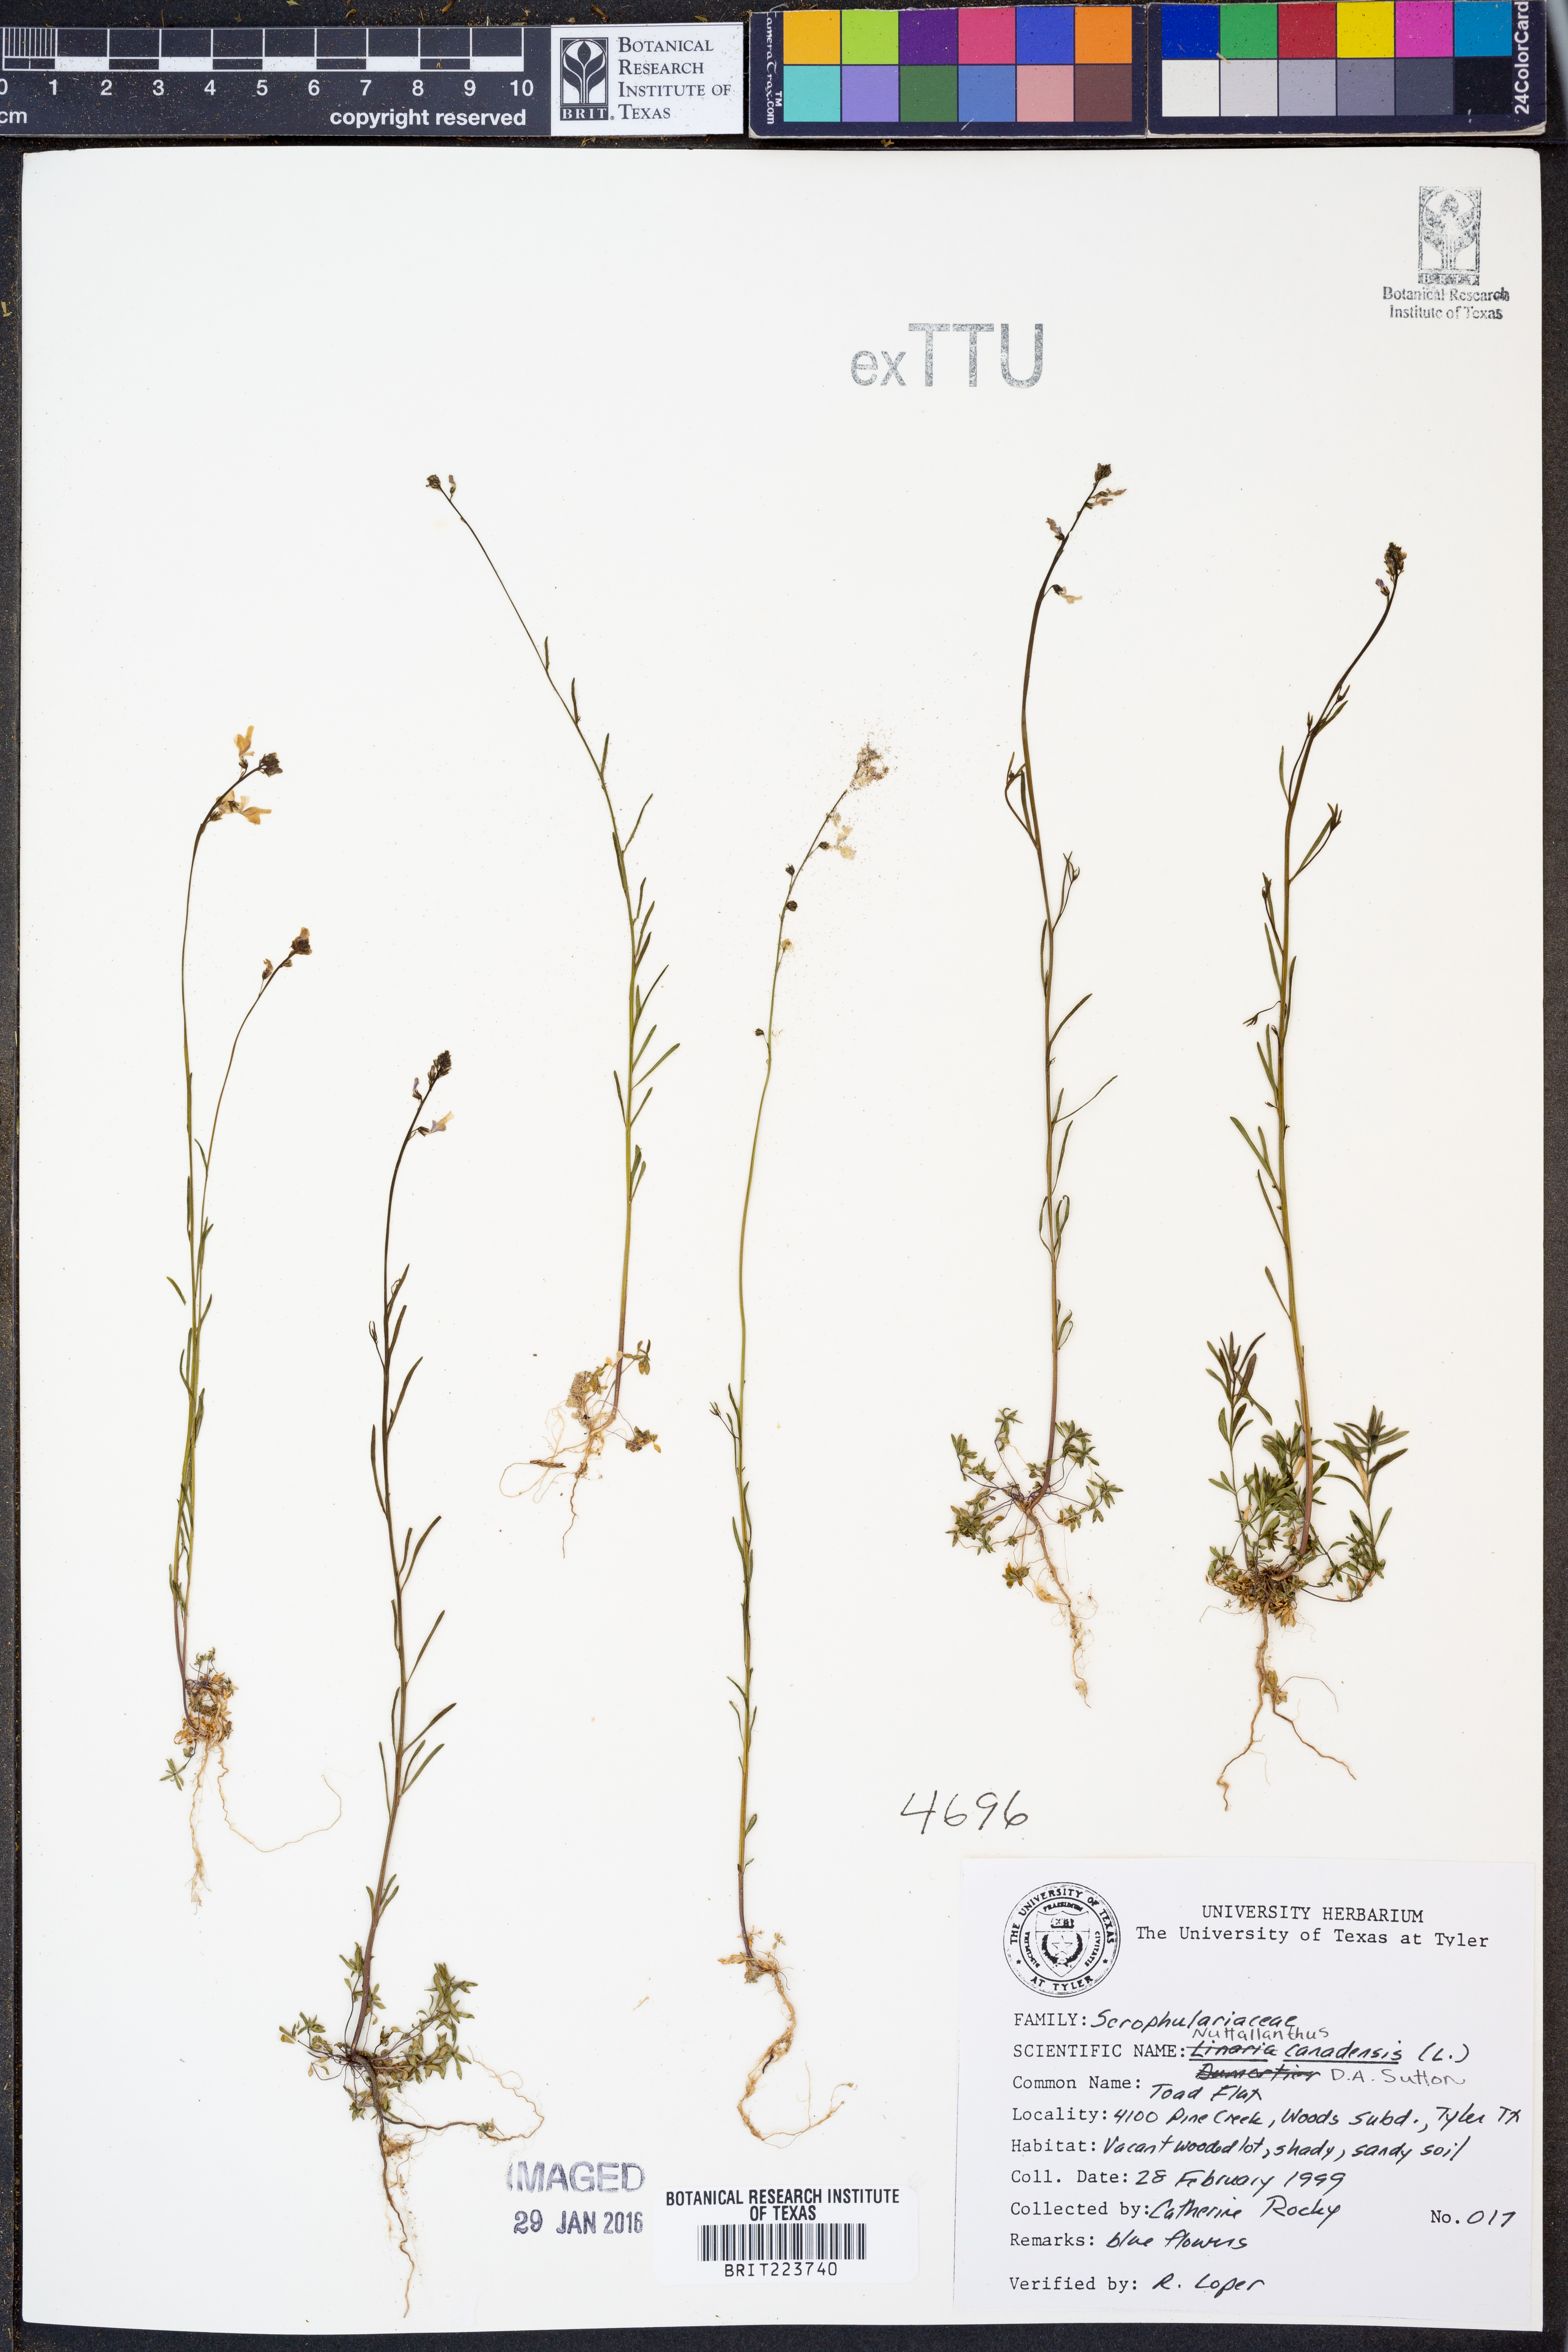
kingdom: Plantae
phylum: Tracheophyta
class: Magnoliopsida
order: Lamiales
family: Plantaginaceae
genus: Nuttallanthus
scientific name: Nuttallanthus canadensis
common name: Blue toadflax
